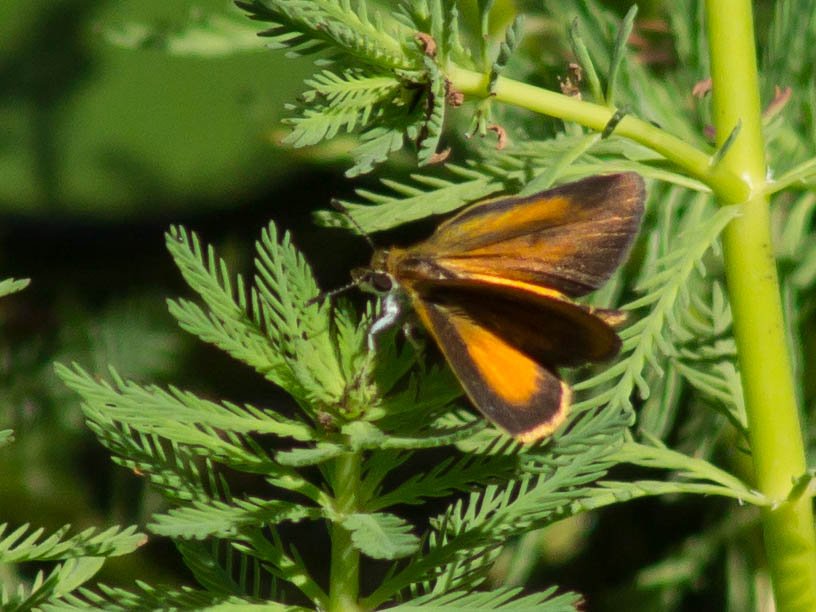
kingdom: Animalia
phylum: Arthropoda
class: Insecta
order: Lepidoptera
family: Hesperiidae
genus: Ancyloxypha
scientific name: Ancyloxypha numitor
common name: Least Skipper
